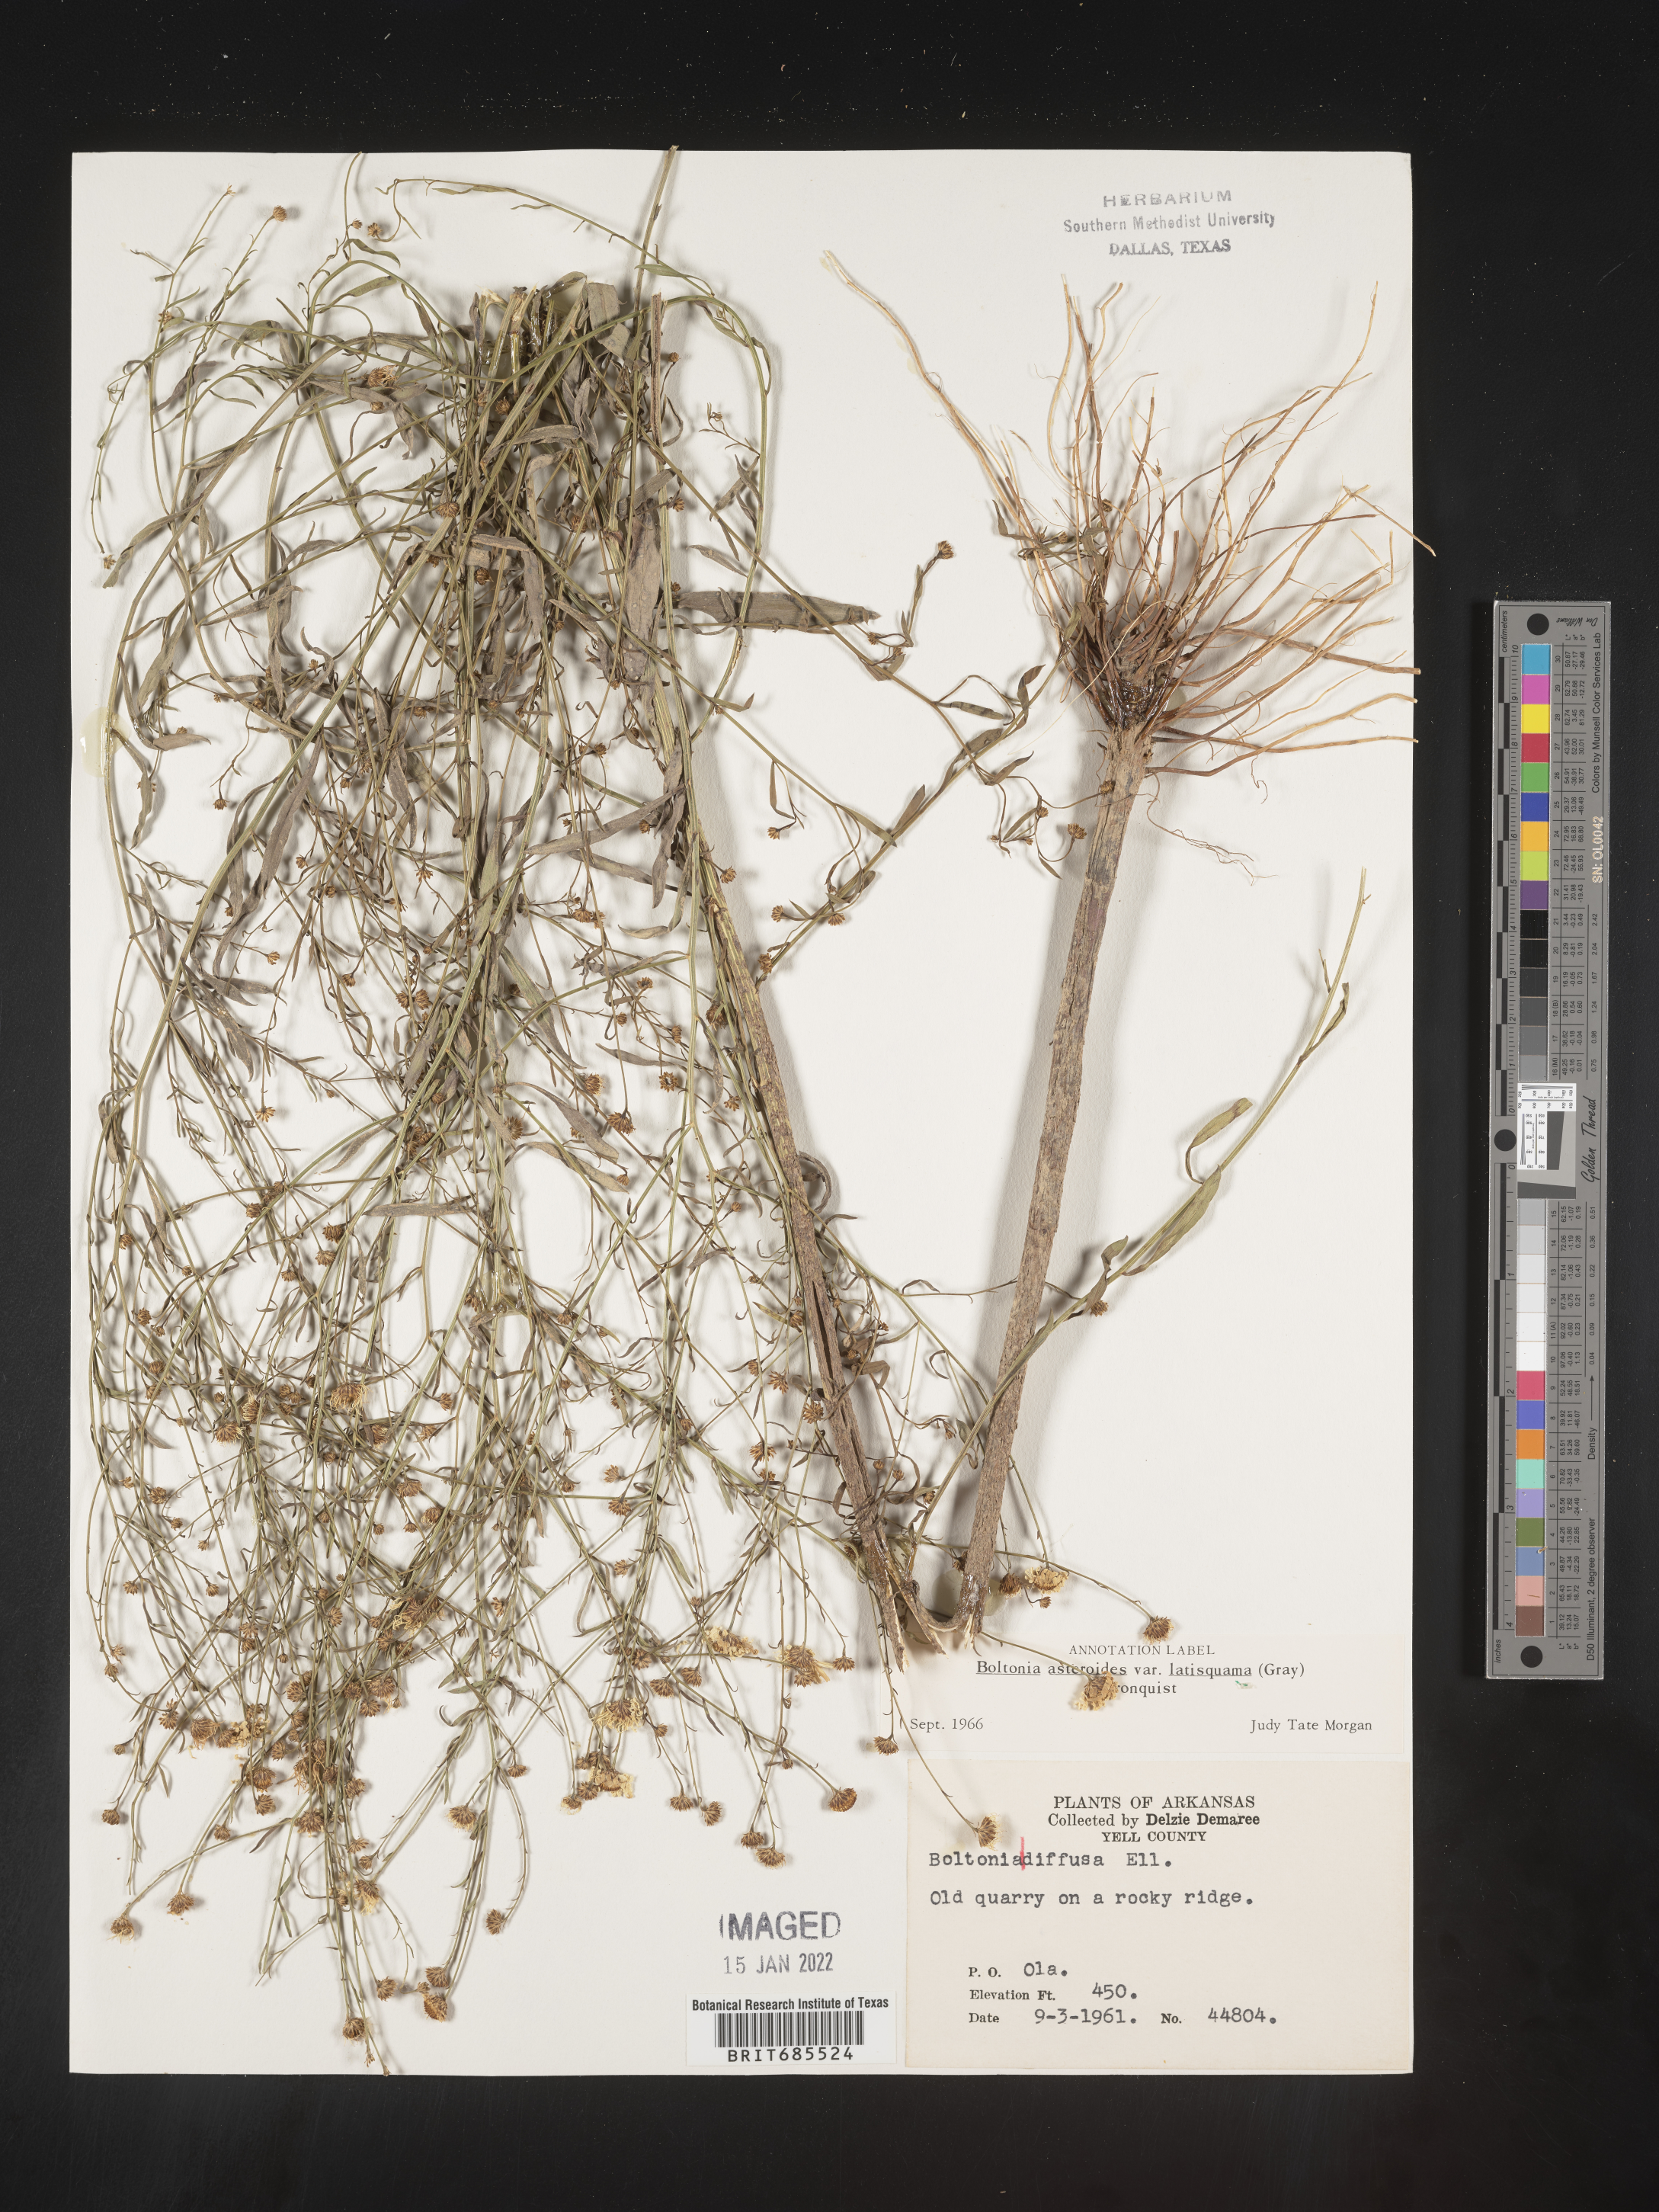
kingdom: Plantae
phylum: Tracheophyta
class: Magnoliopsida
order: Asterales
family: Asteraceae
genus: Boltonia
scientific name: Boltonia asteroides
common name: False chamomile
